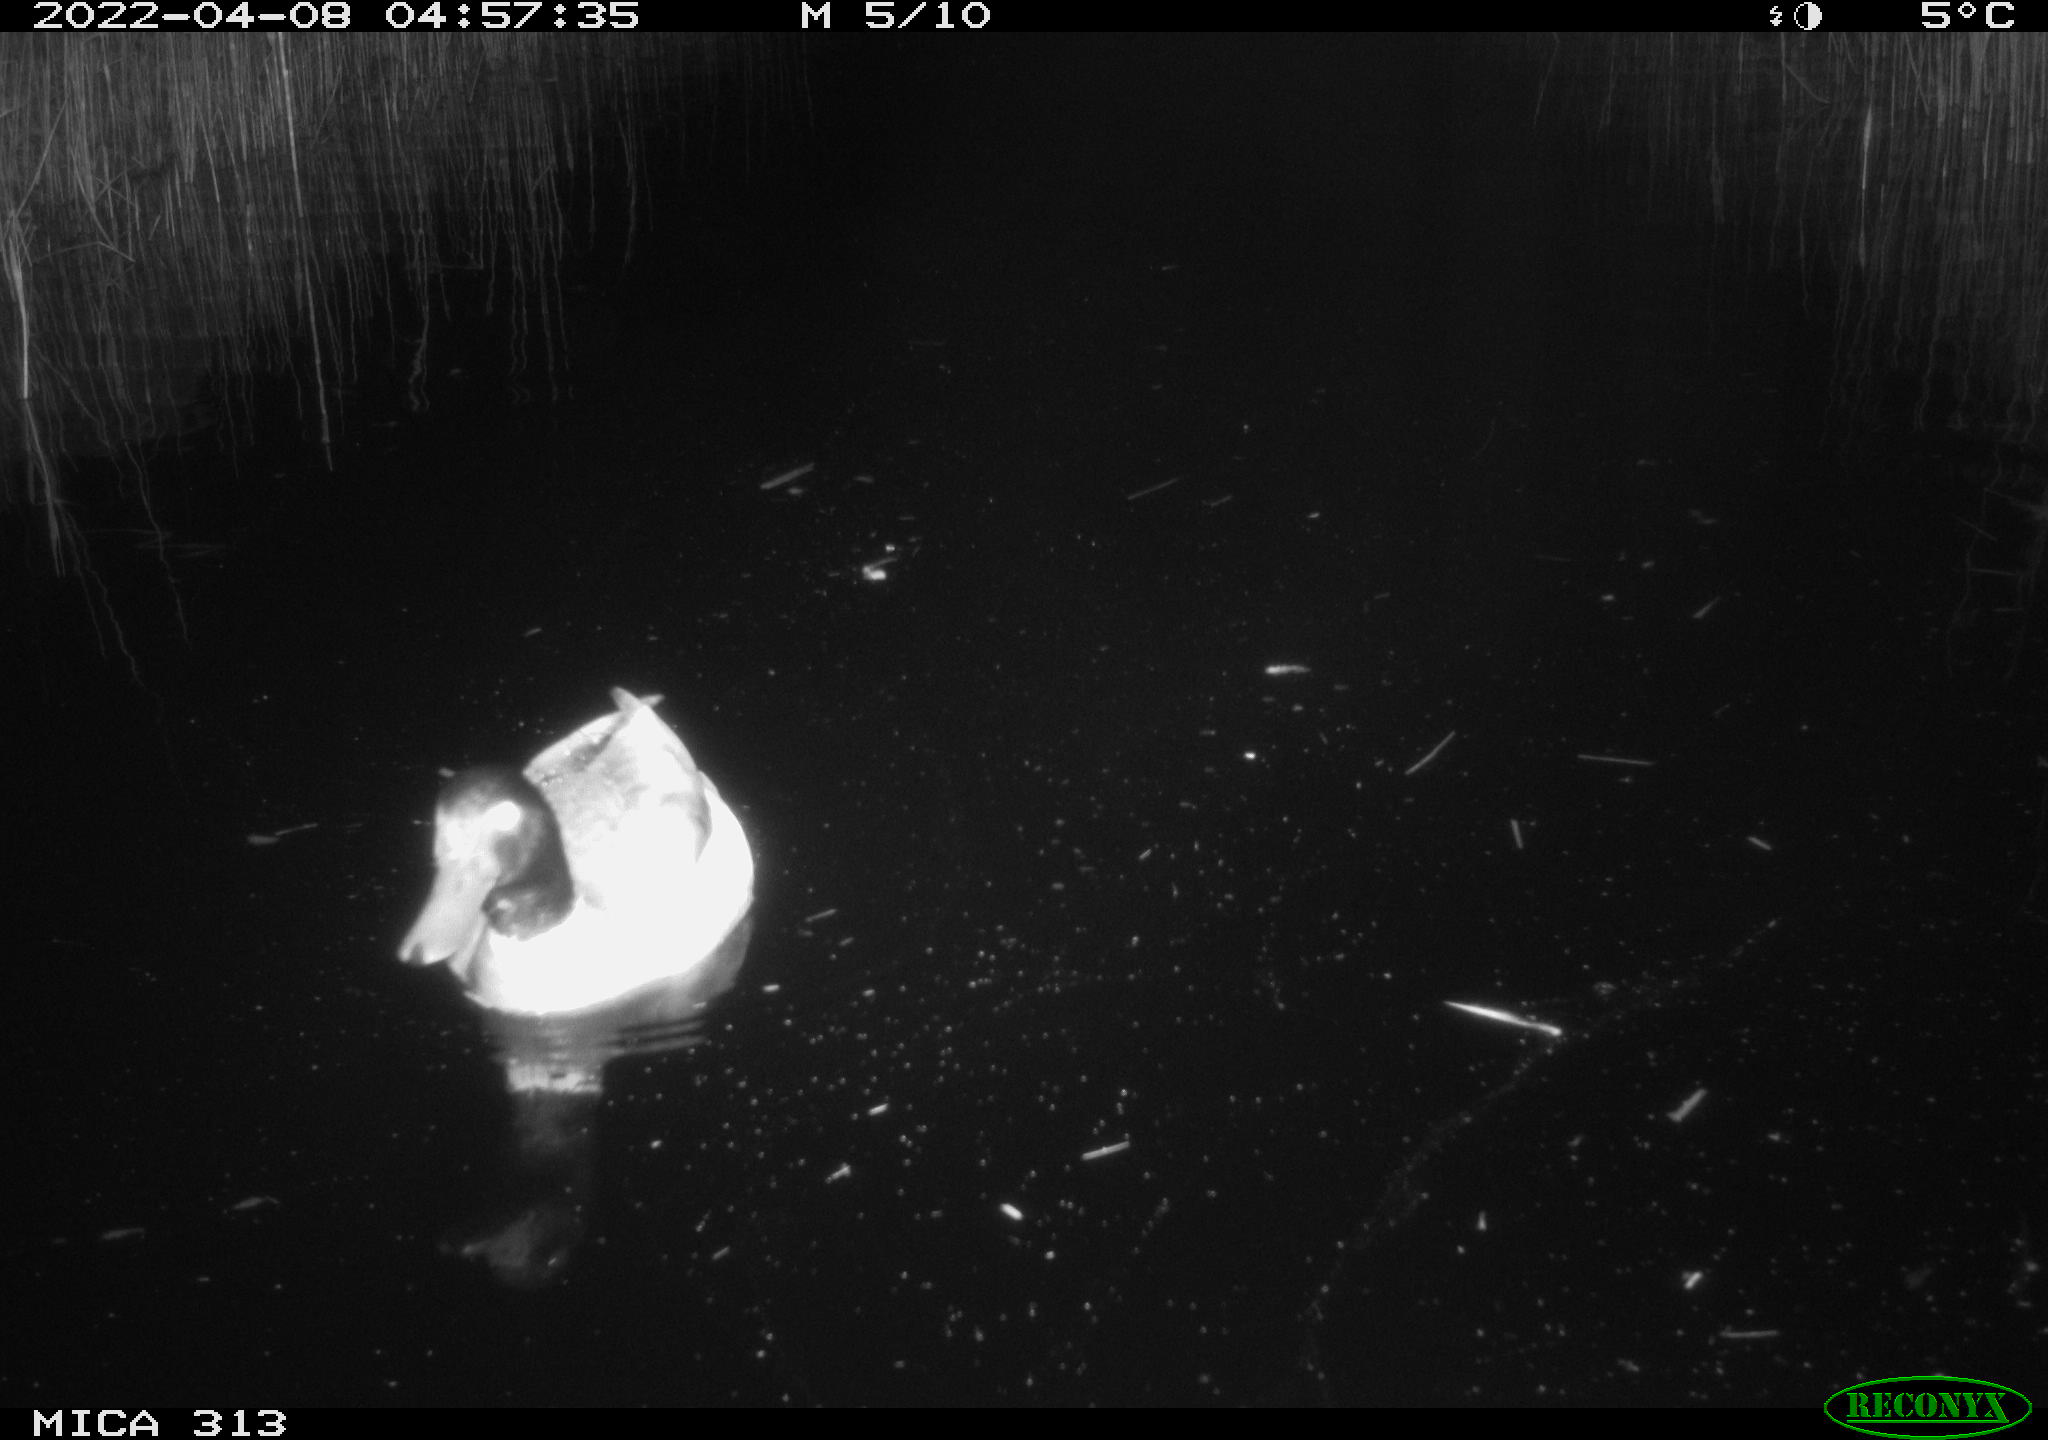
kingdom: Animalia
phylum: Chordata
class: Aves
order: Anseriformes
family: Anatidae
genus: Anas
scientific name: Anas platyrhynchos
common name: Mallard
